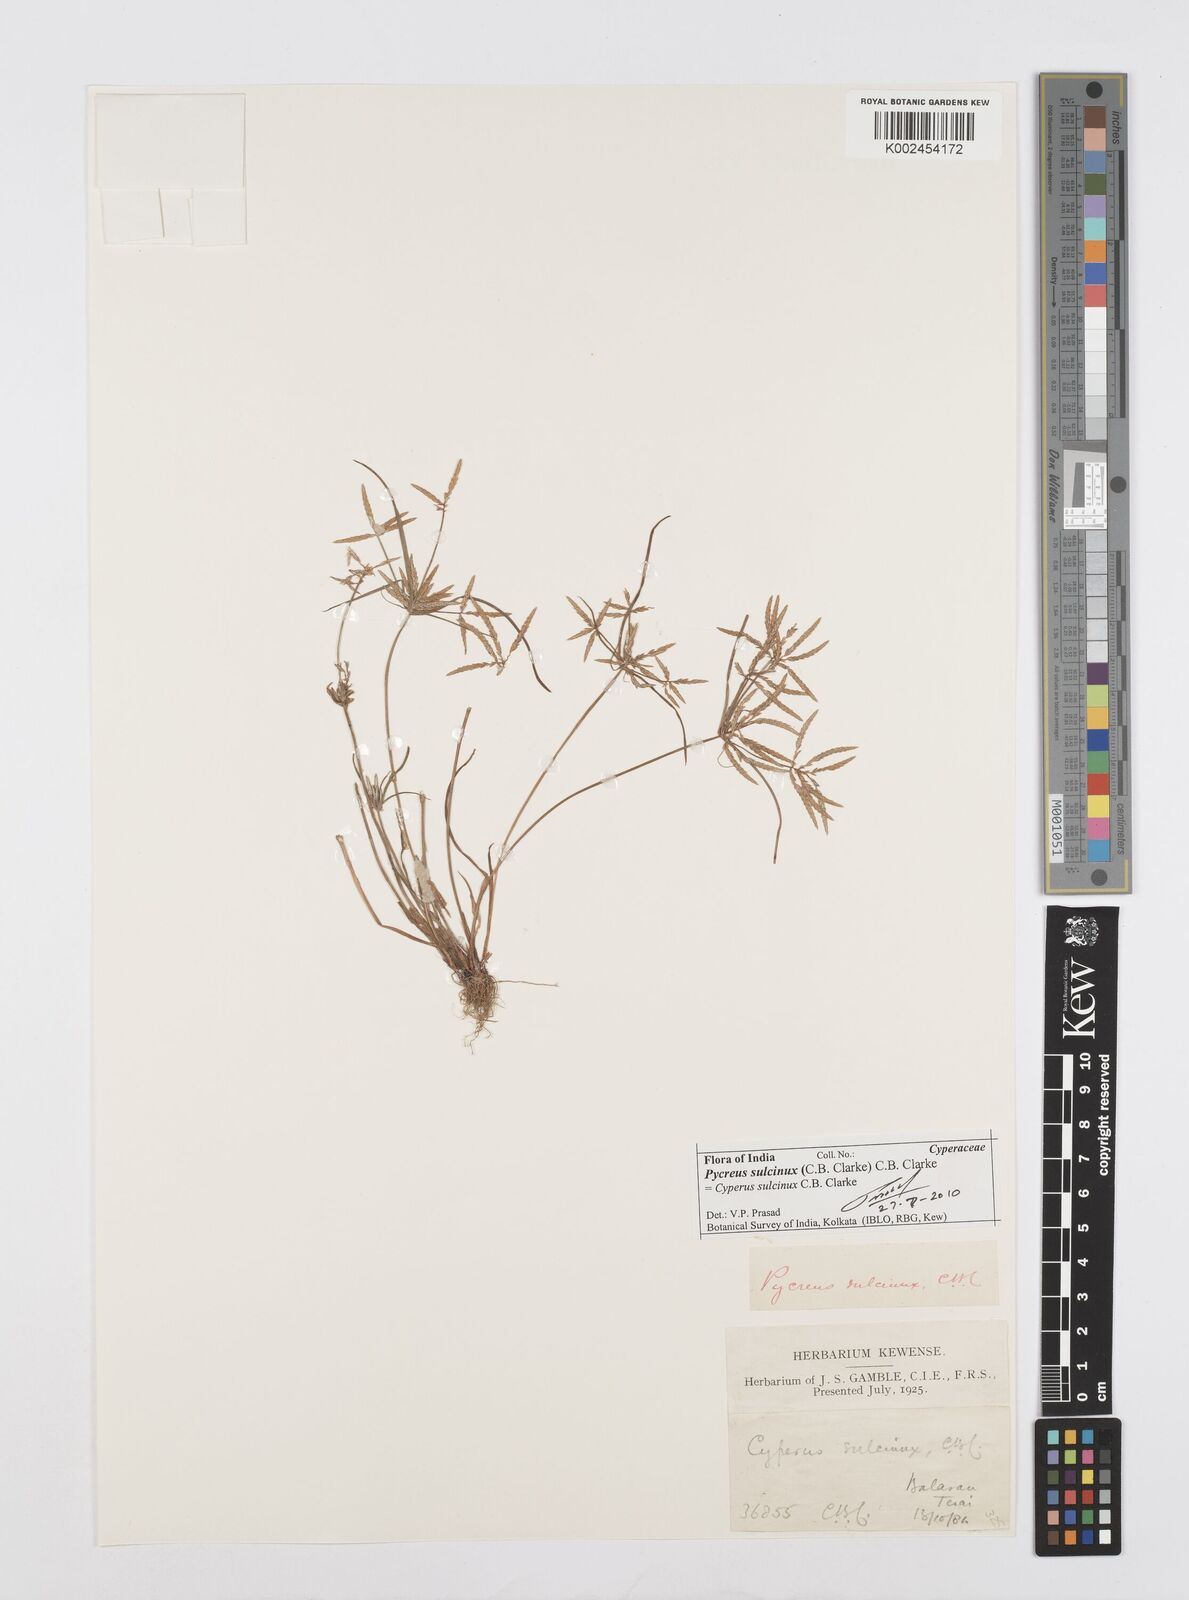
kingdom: Plantae
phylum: Tracheophyta
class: Liliopsida
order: Poales
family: Cyperaceae
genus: Cyperus
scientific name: Cyperus sulcinux
